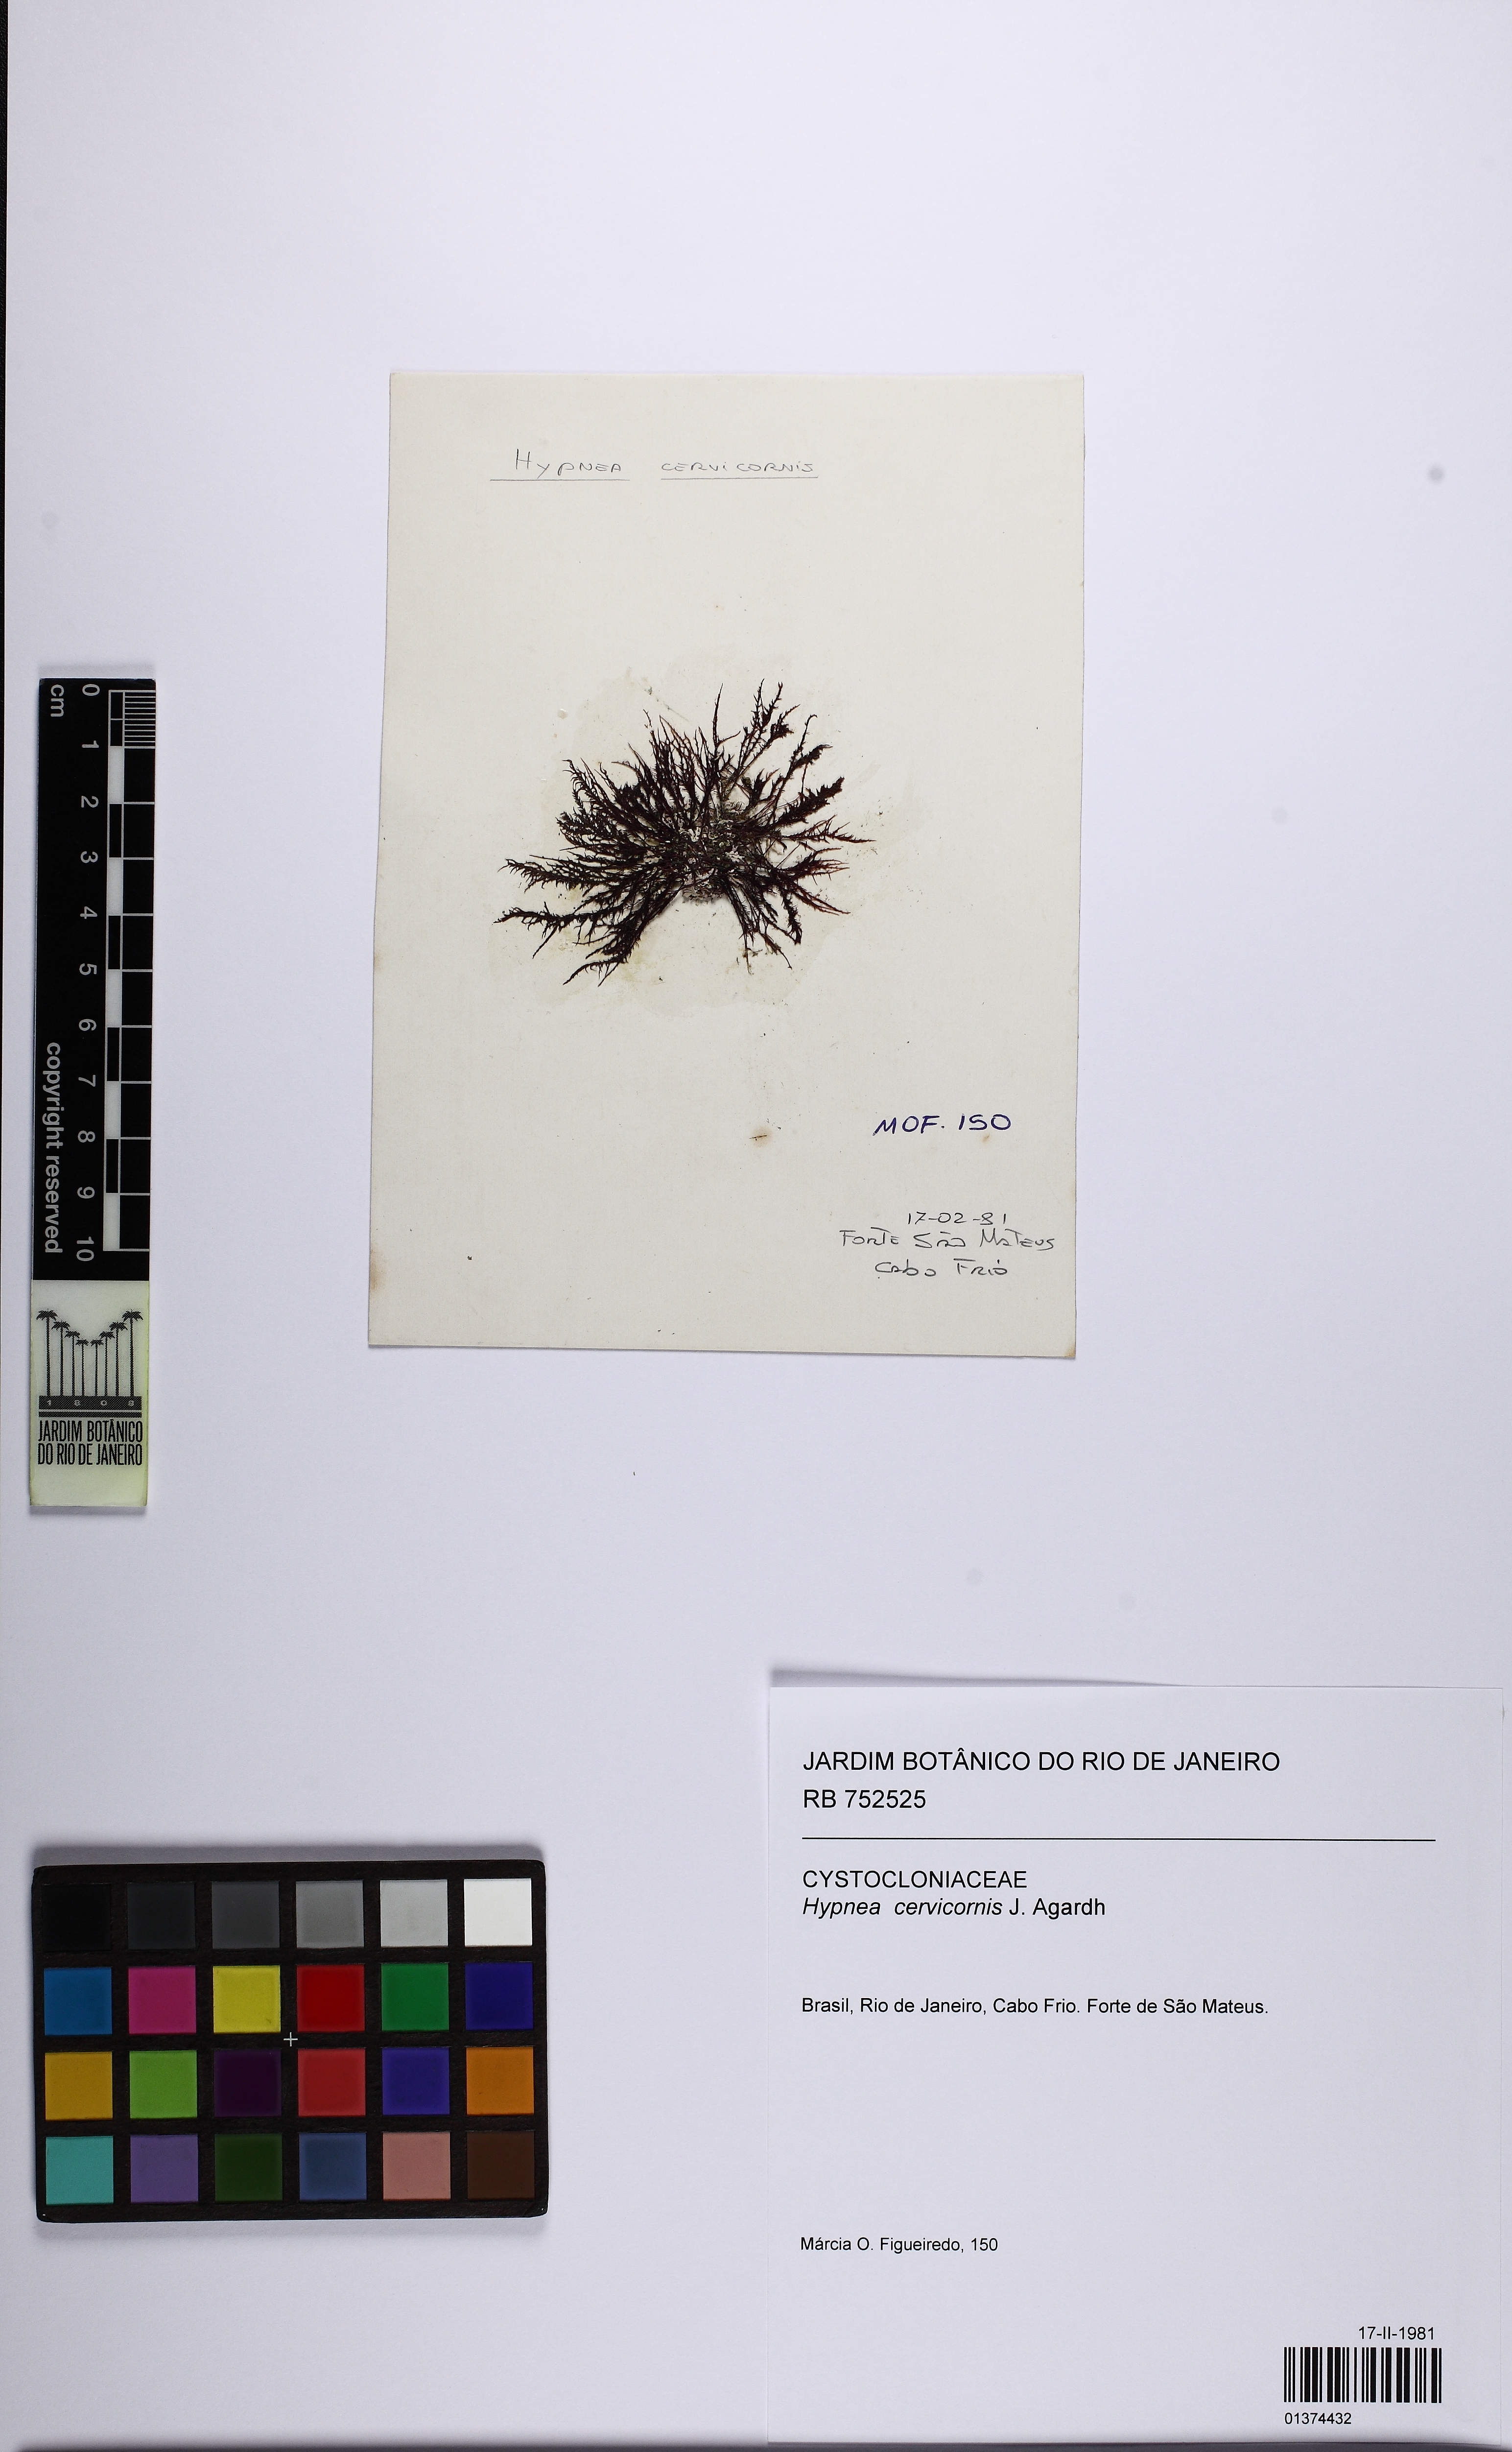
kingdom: Plantae
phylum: Rhodophyta
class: Florideophyceae
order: Gigartinales
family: Cystocloniaceae
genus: Hypnea
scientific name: Hypnea cervicornis
